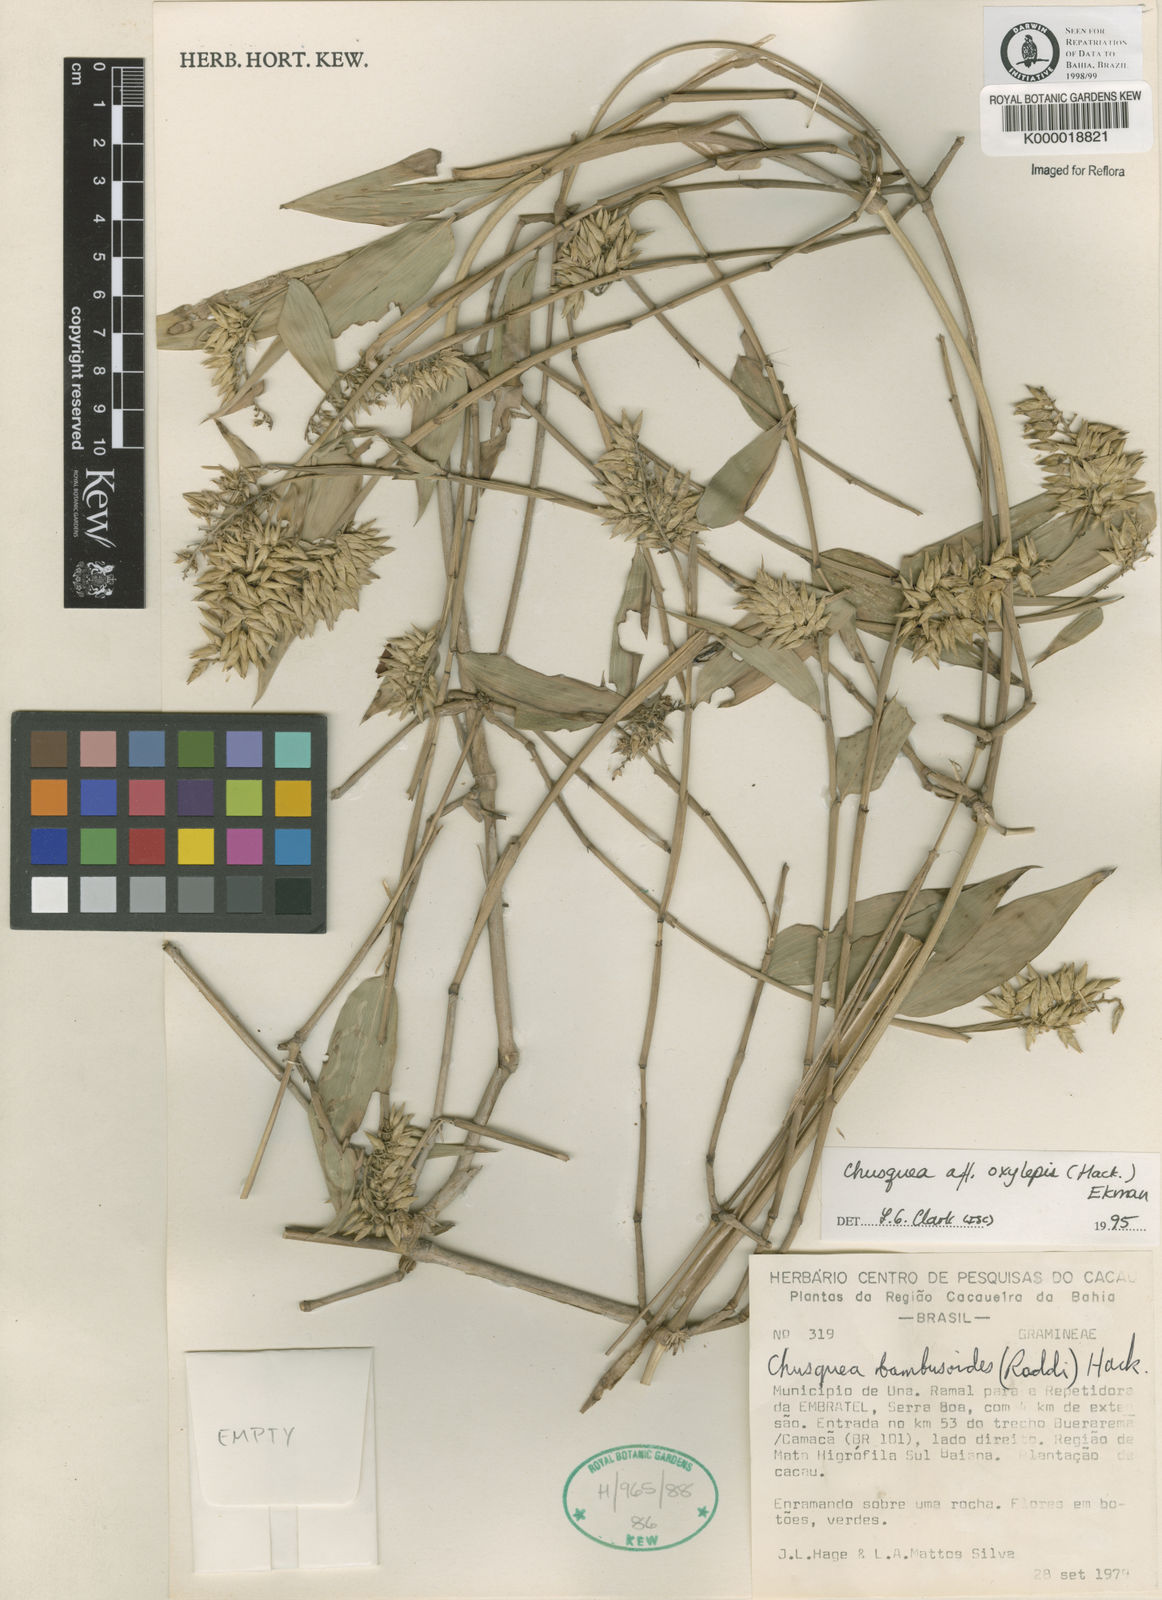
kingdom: Plantae
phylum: Tracheophyta
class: Liliopsida
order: Poales
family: Poaceae
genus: Chusquea
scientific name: Chusquea oxylepis
